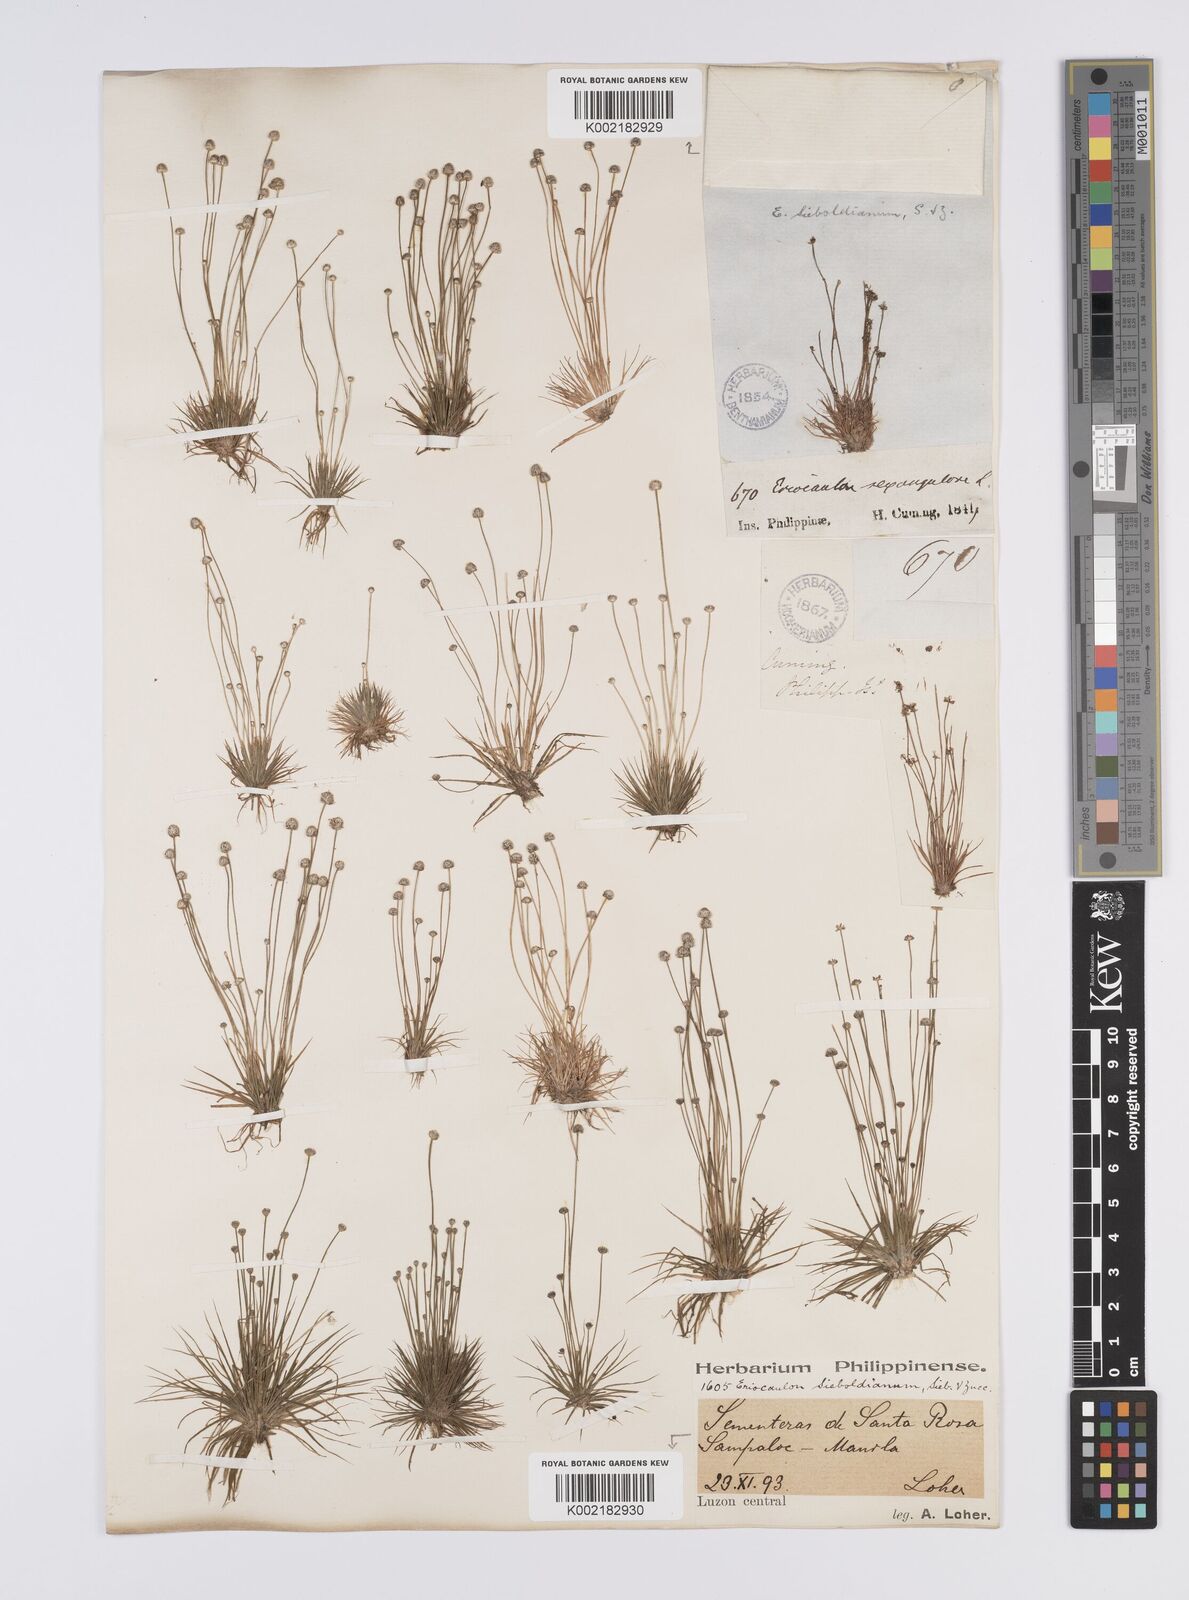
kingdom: Plantae
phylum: Tracheophyta
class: Liliopsida
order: Poales
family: Eriocaulaceae
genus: Eriocaulon
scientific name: Eriocaulon cinereum
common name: Ashy pipewort
